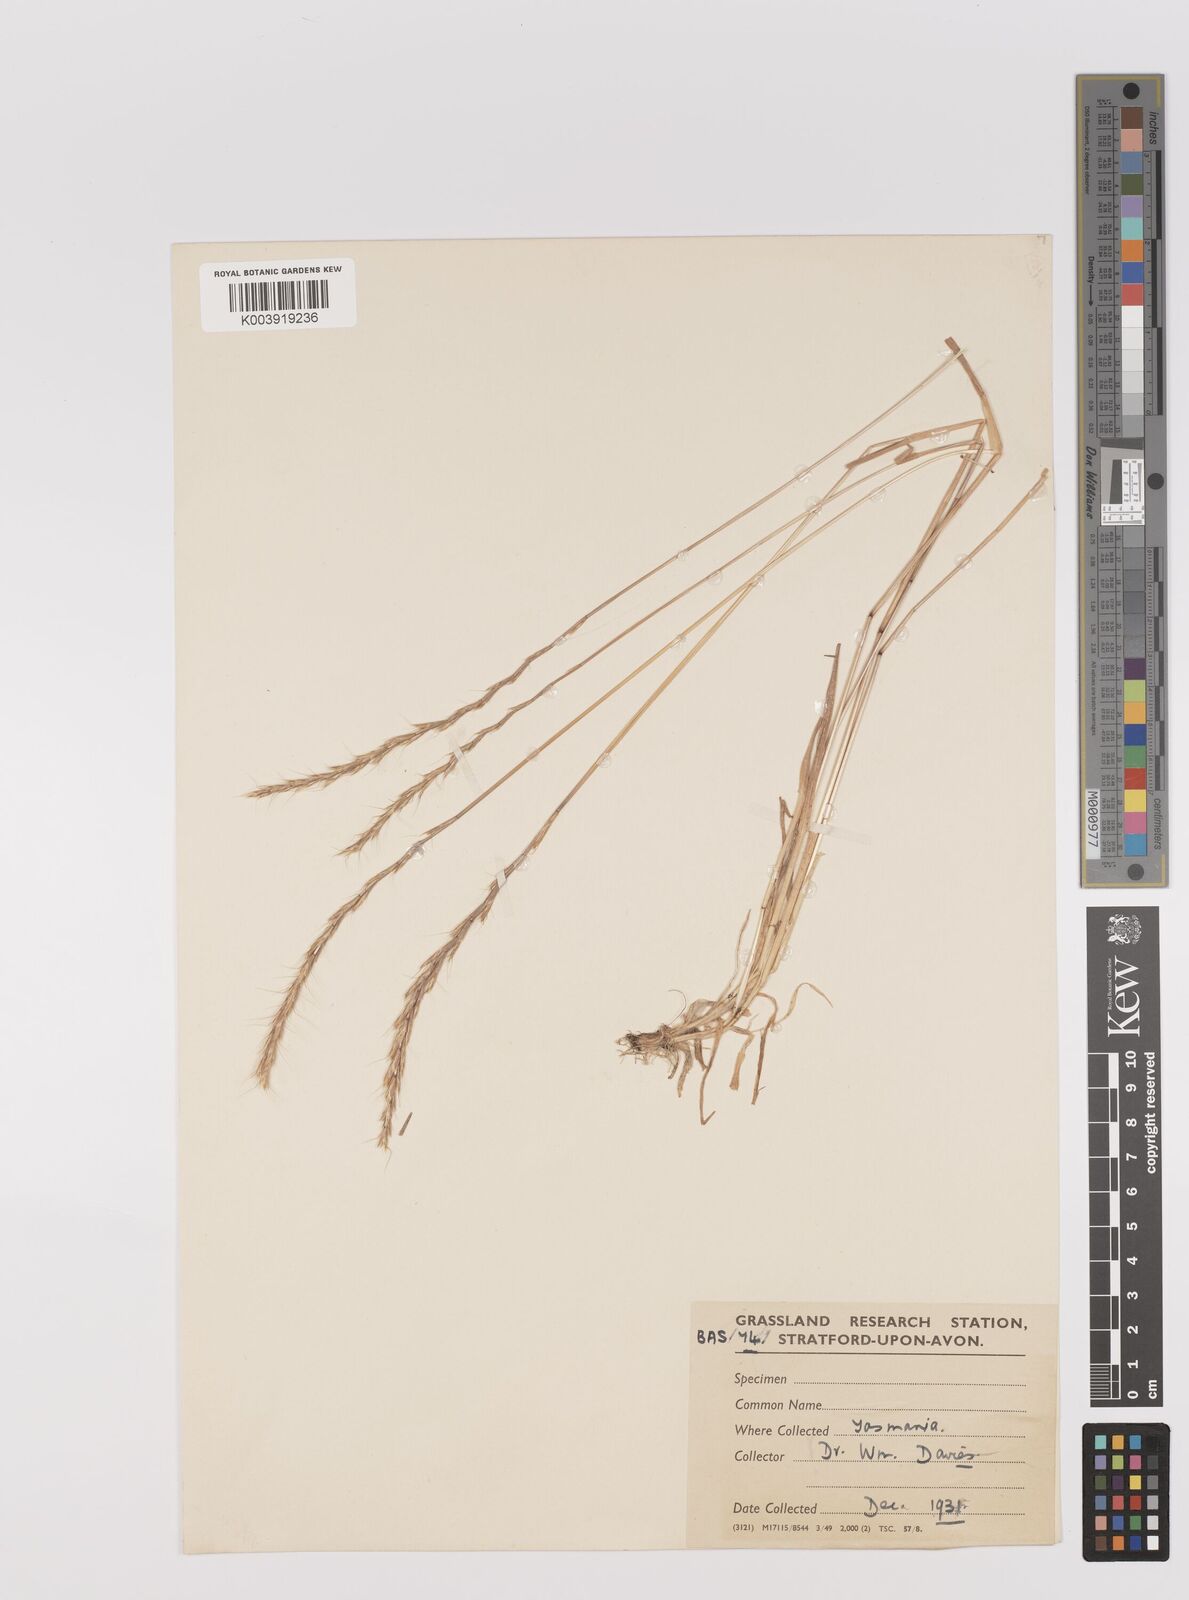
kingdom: Plantae
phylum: Tracheophyta
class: Liliopsida
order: Poales
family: Poaceae
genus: Gaudinia
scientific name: Gaudinia fragilis
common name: French oat-grass
